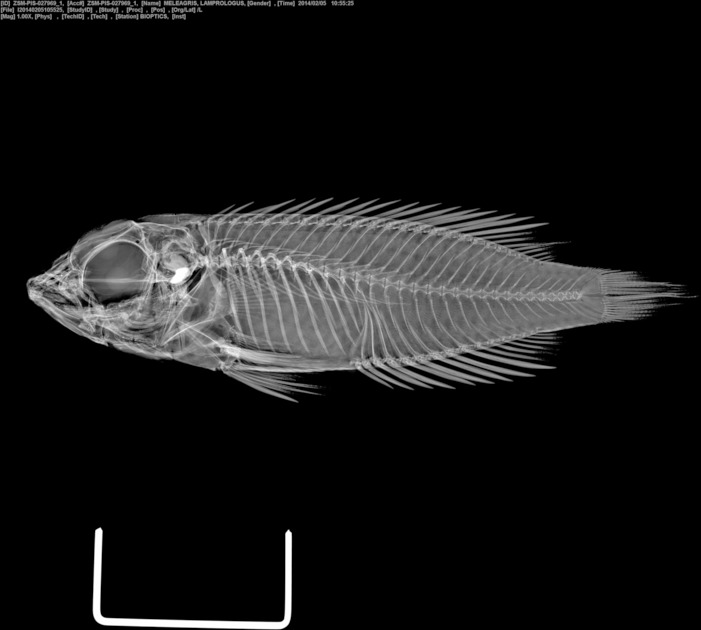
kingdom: Animalia
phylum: Chordata
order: Perciformes
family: Cichlidae
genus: Lamprologus
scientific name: Lamprologus meleagris
